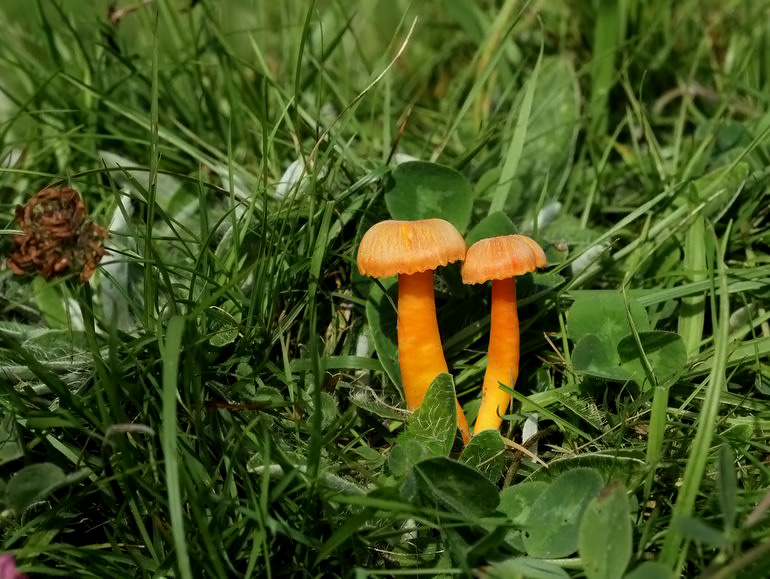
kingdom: Fungi
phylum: Basidiomycota
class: Agaricomycetes
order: Agaricales
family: Hygrophoraceae
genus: Hygrocybe
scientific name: Hygrocybe reidii
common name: honning-vokshat
